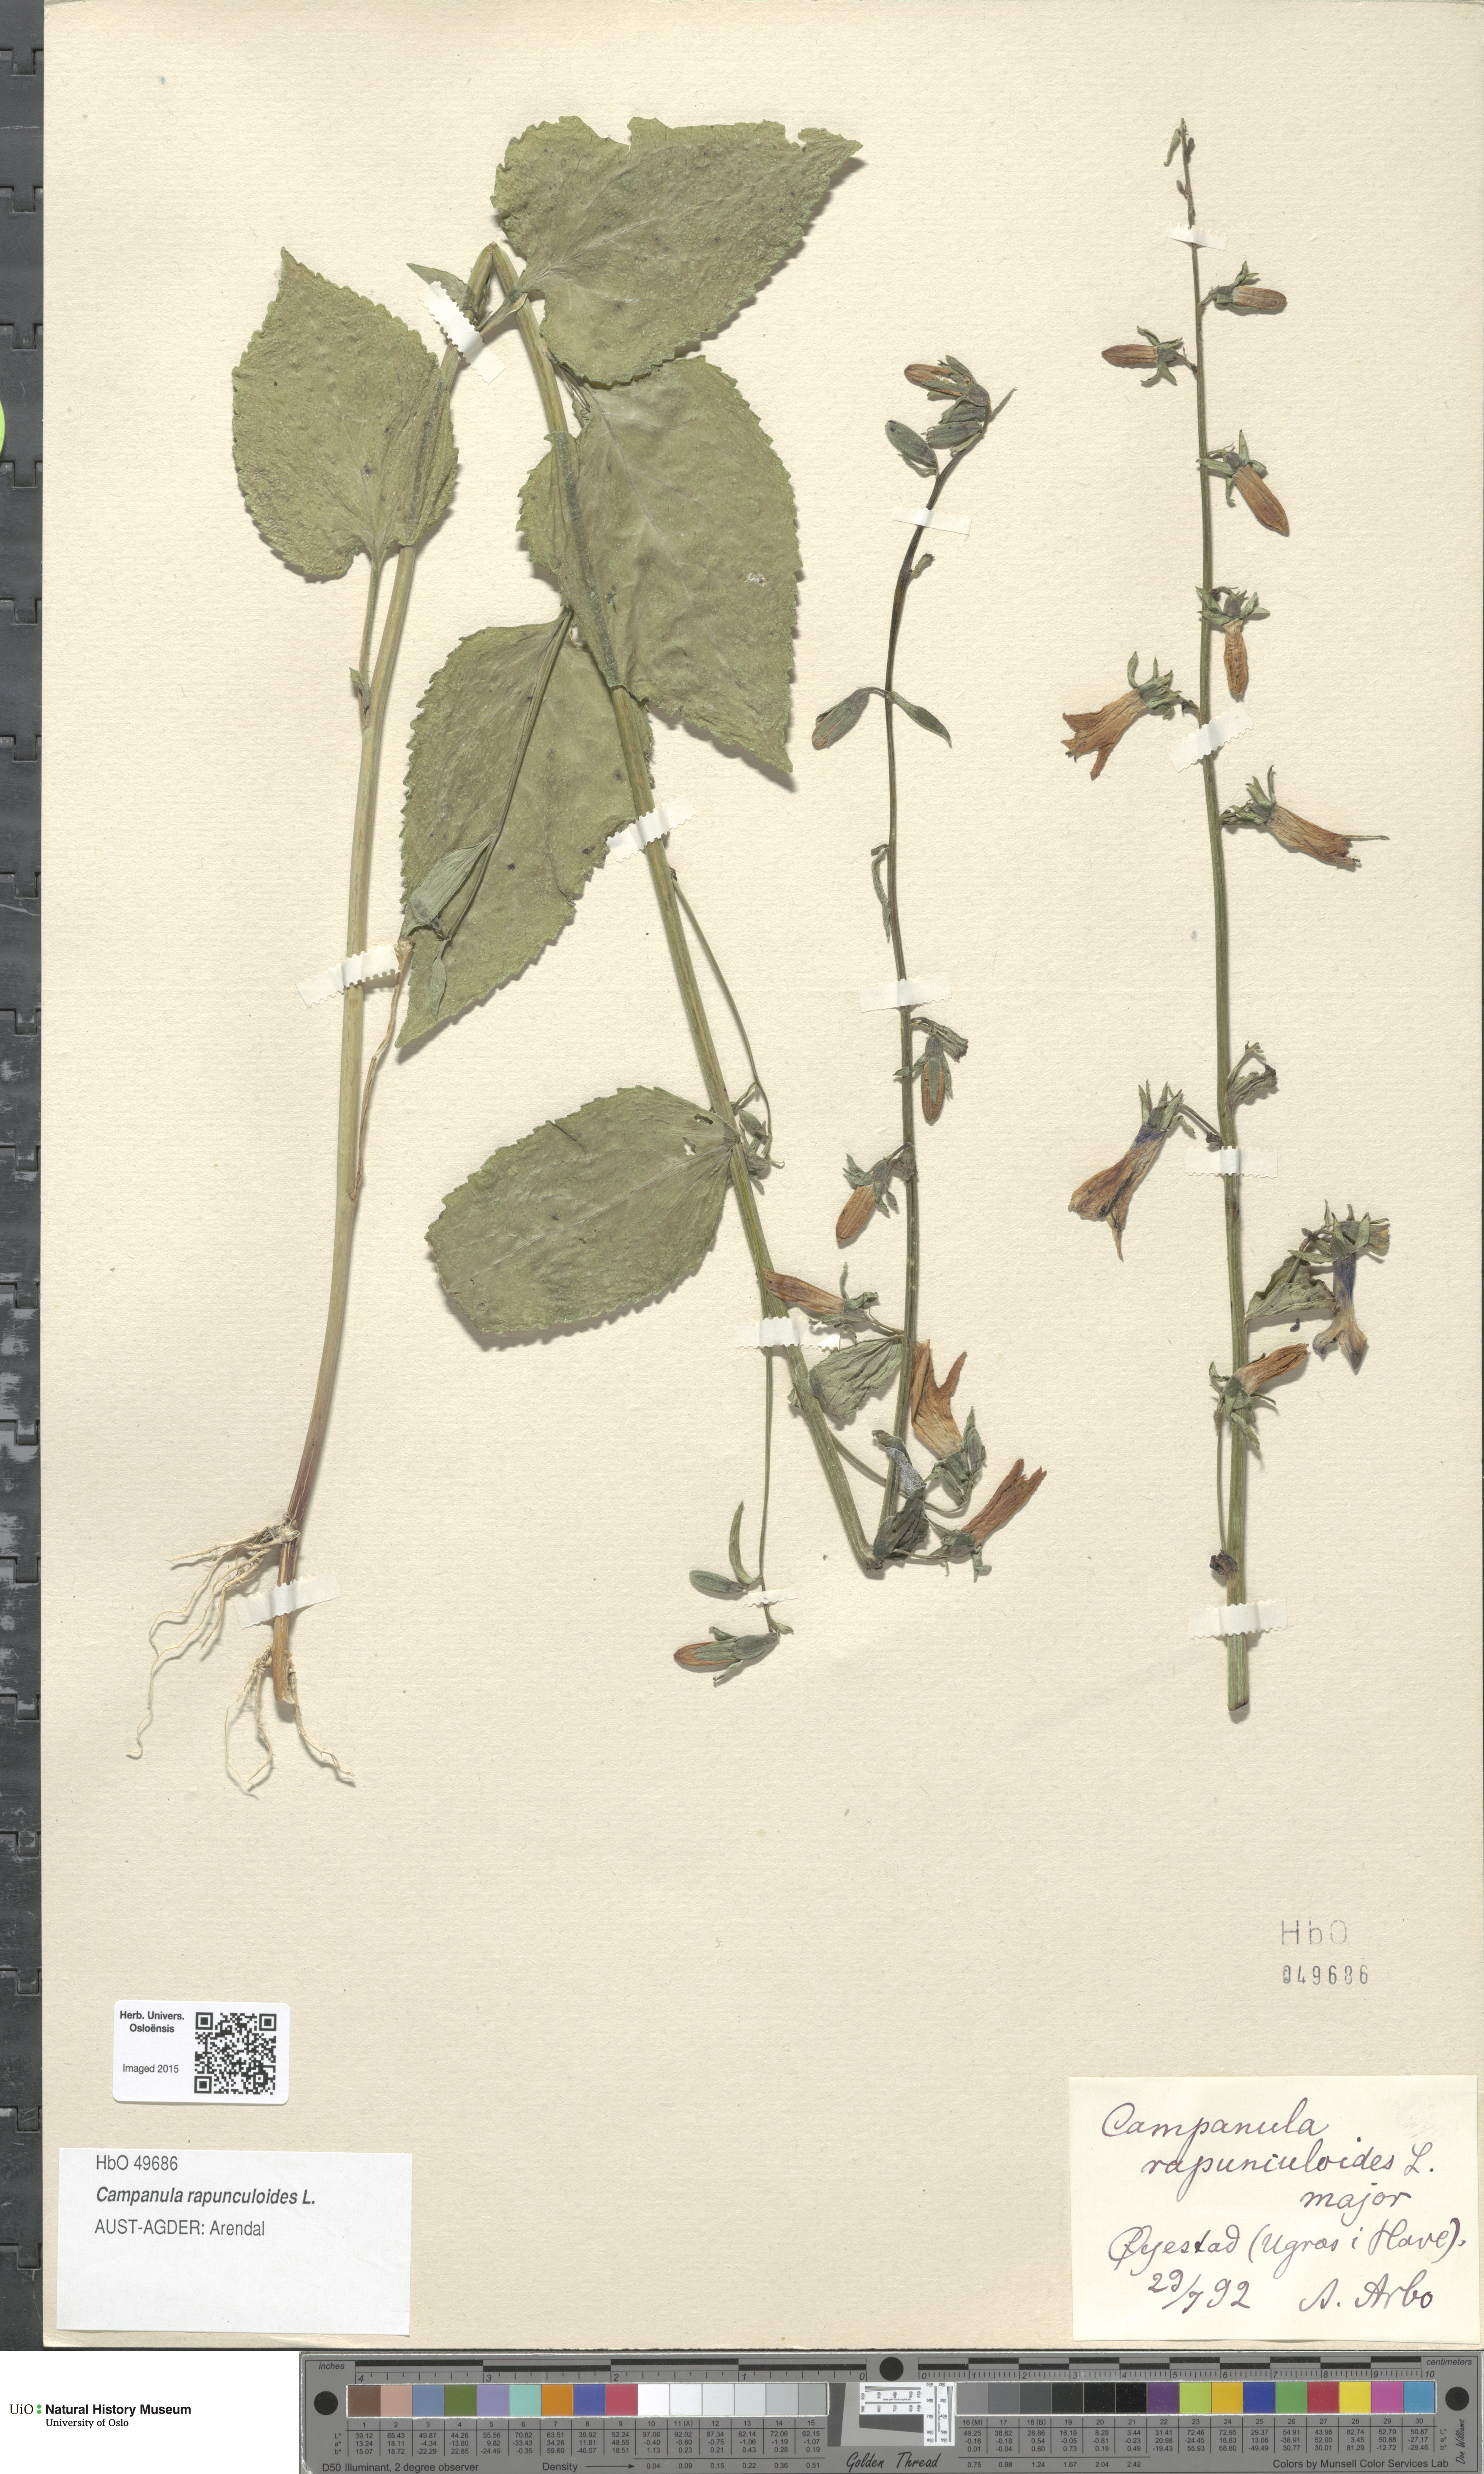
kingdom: Plantae
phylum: Tracheophyta
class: Magnoliopsida
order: Asterales
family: Campanulaceae
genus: Campanula
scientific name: Campanula rapunculoides
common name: Creeping bellflower
